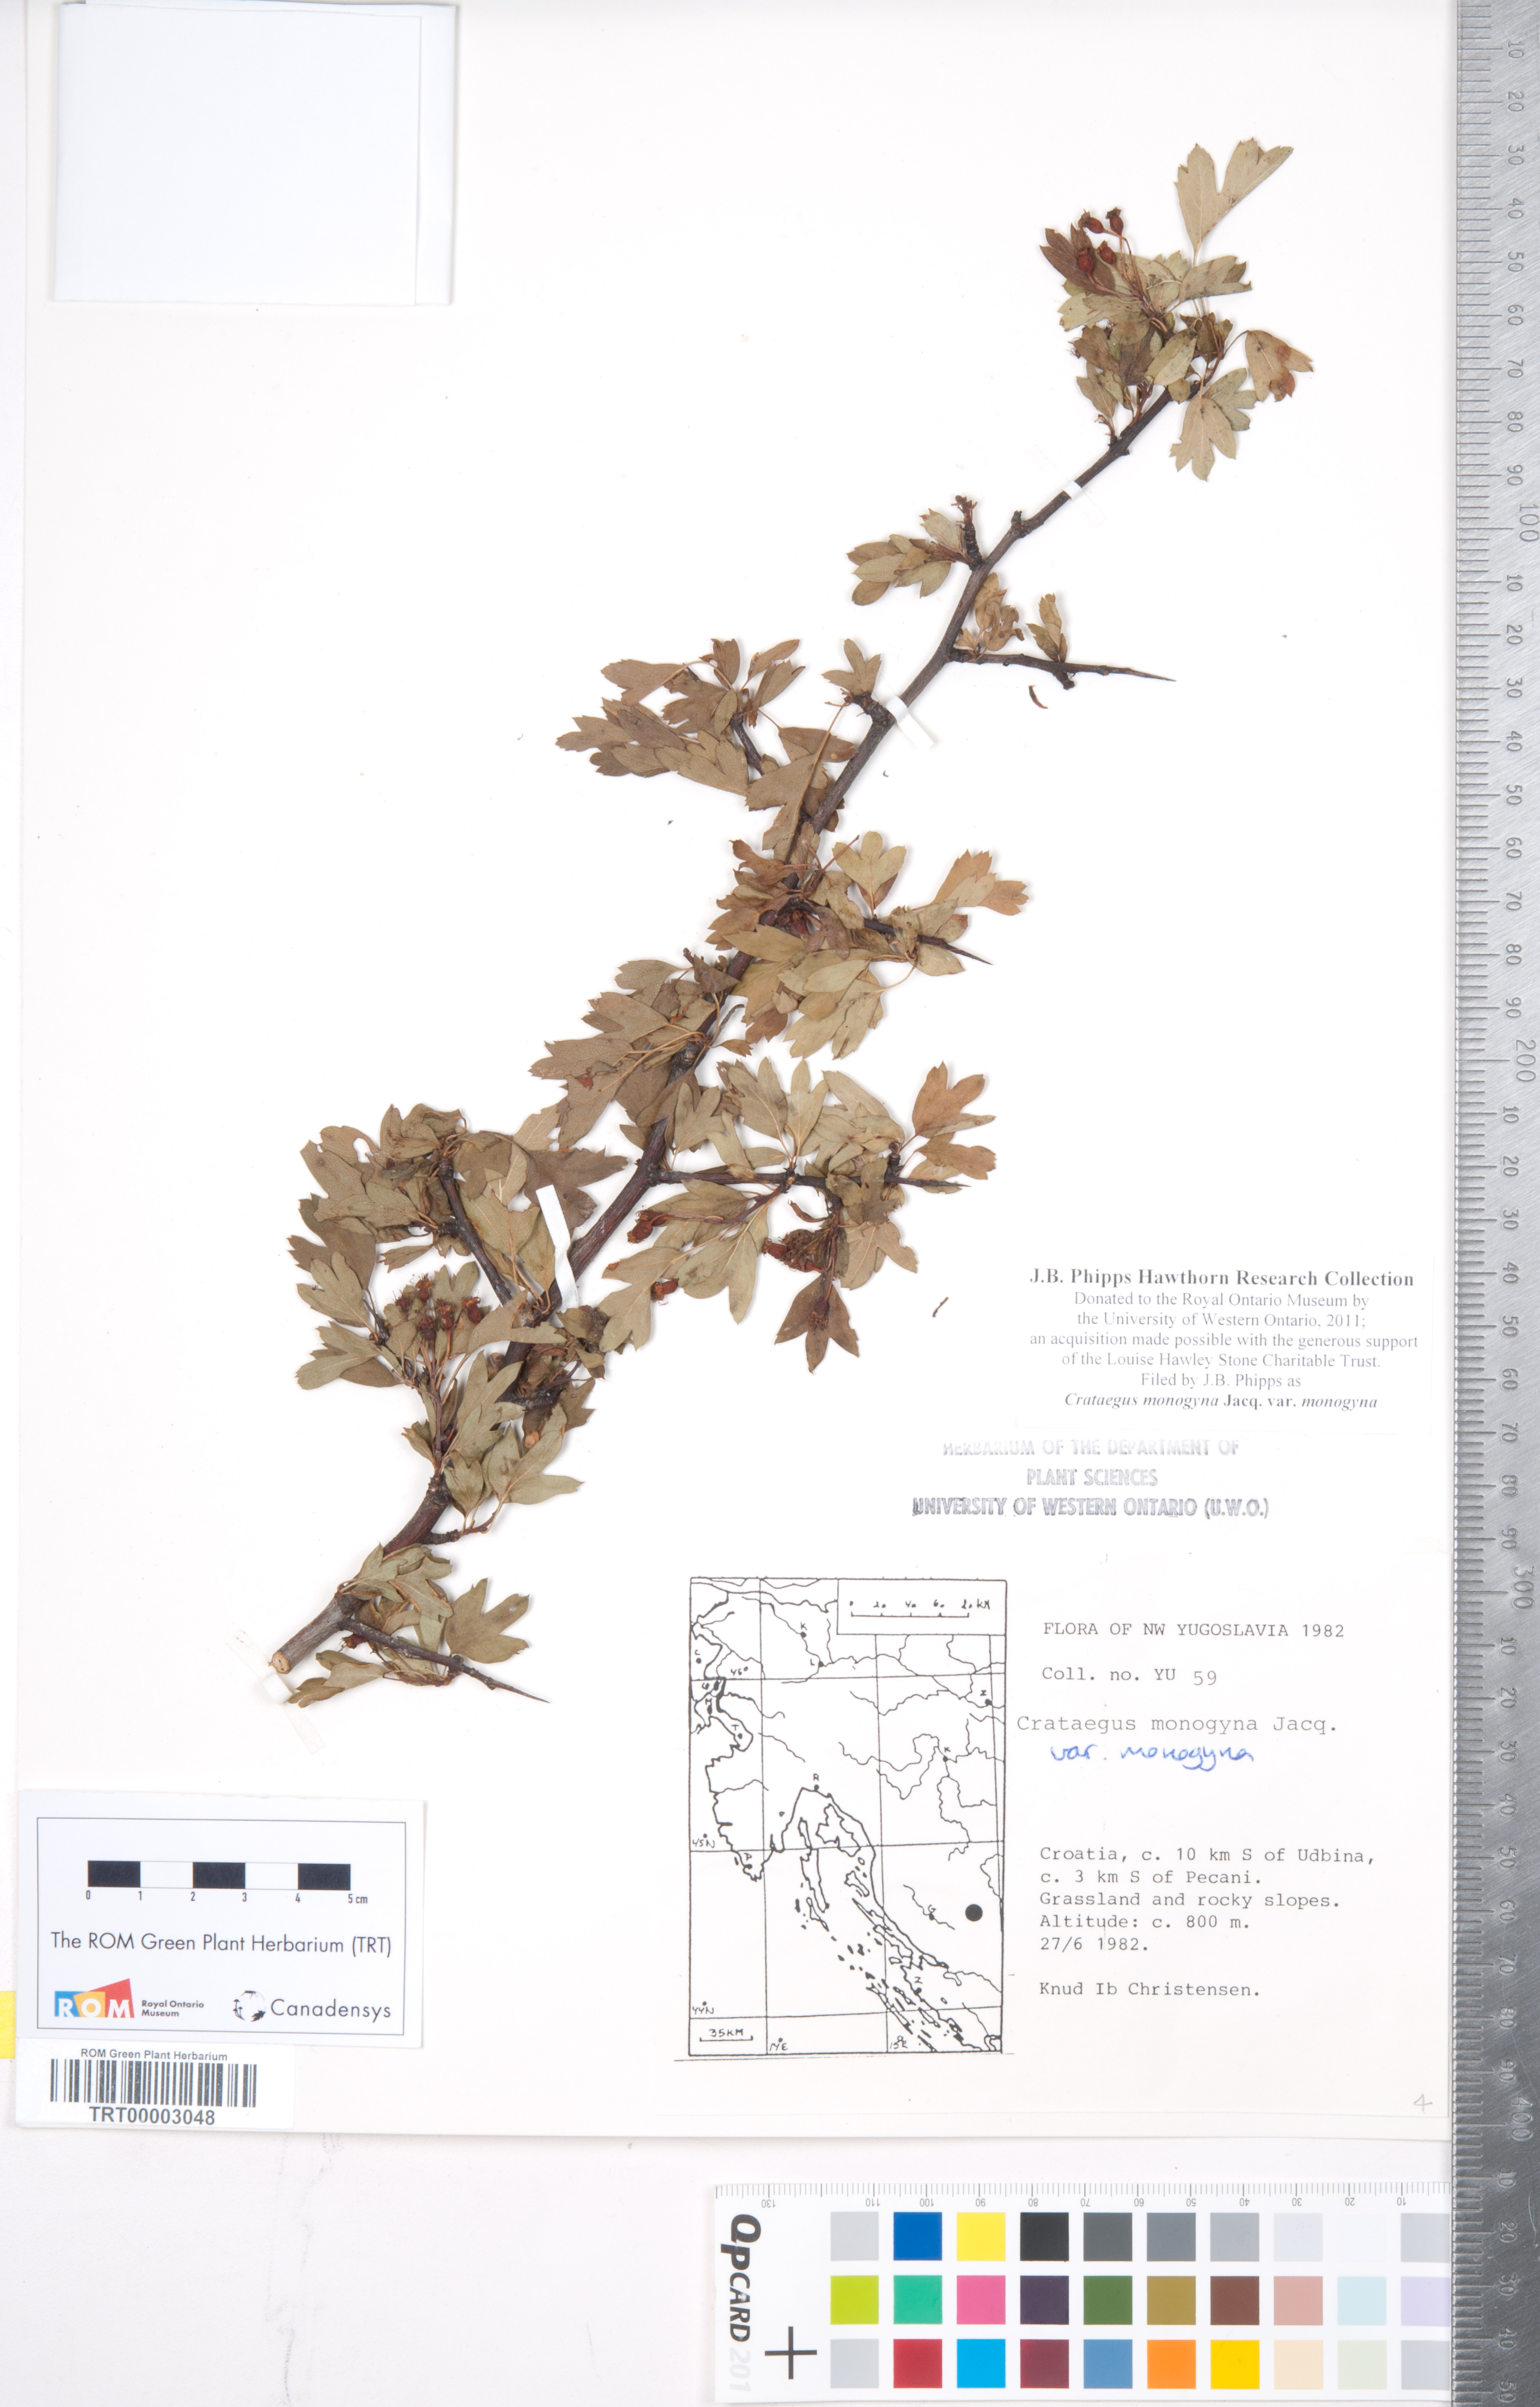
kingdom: Plantae
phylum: Tracheophyta
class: Magnoliopsida
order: Rosales
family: Rosaceae
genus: Crataegus
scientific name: Crataegus monogyna
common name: Hawthorn
